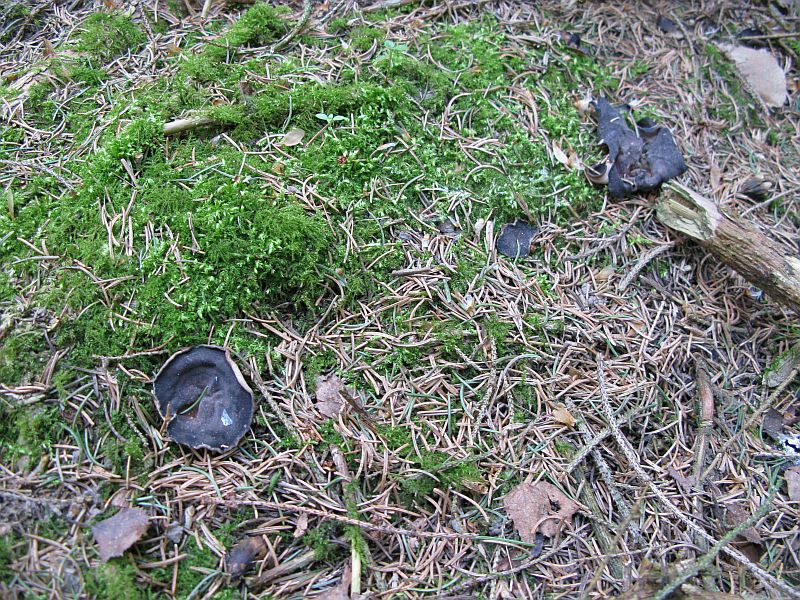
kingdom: Fungi
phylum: Ascomycota
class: Pezizomycetes
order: Pezizales
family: Discinaceae
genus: Discina
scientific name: Discina ancilis
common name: udbredt stenmorkel
